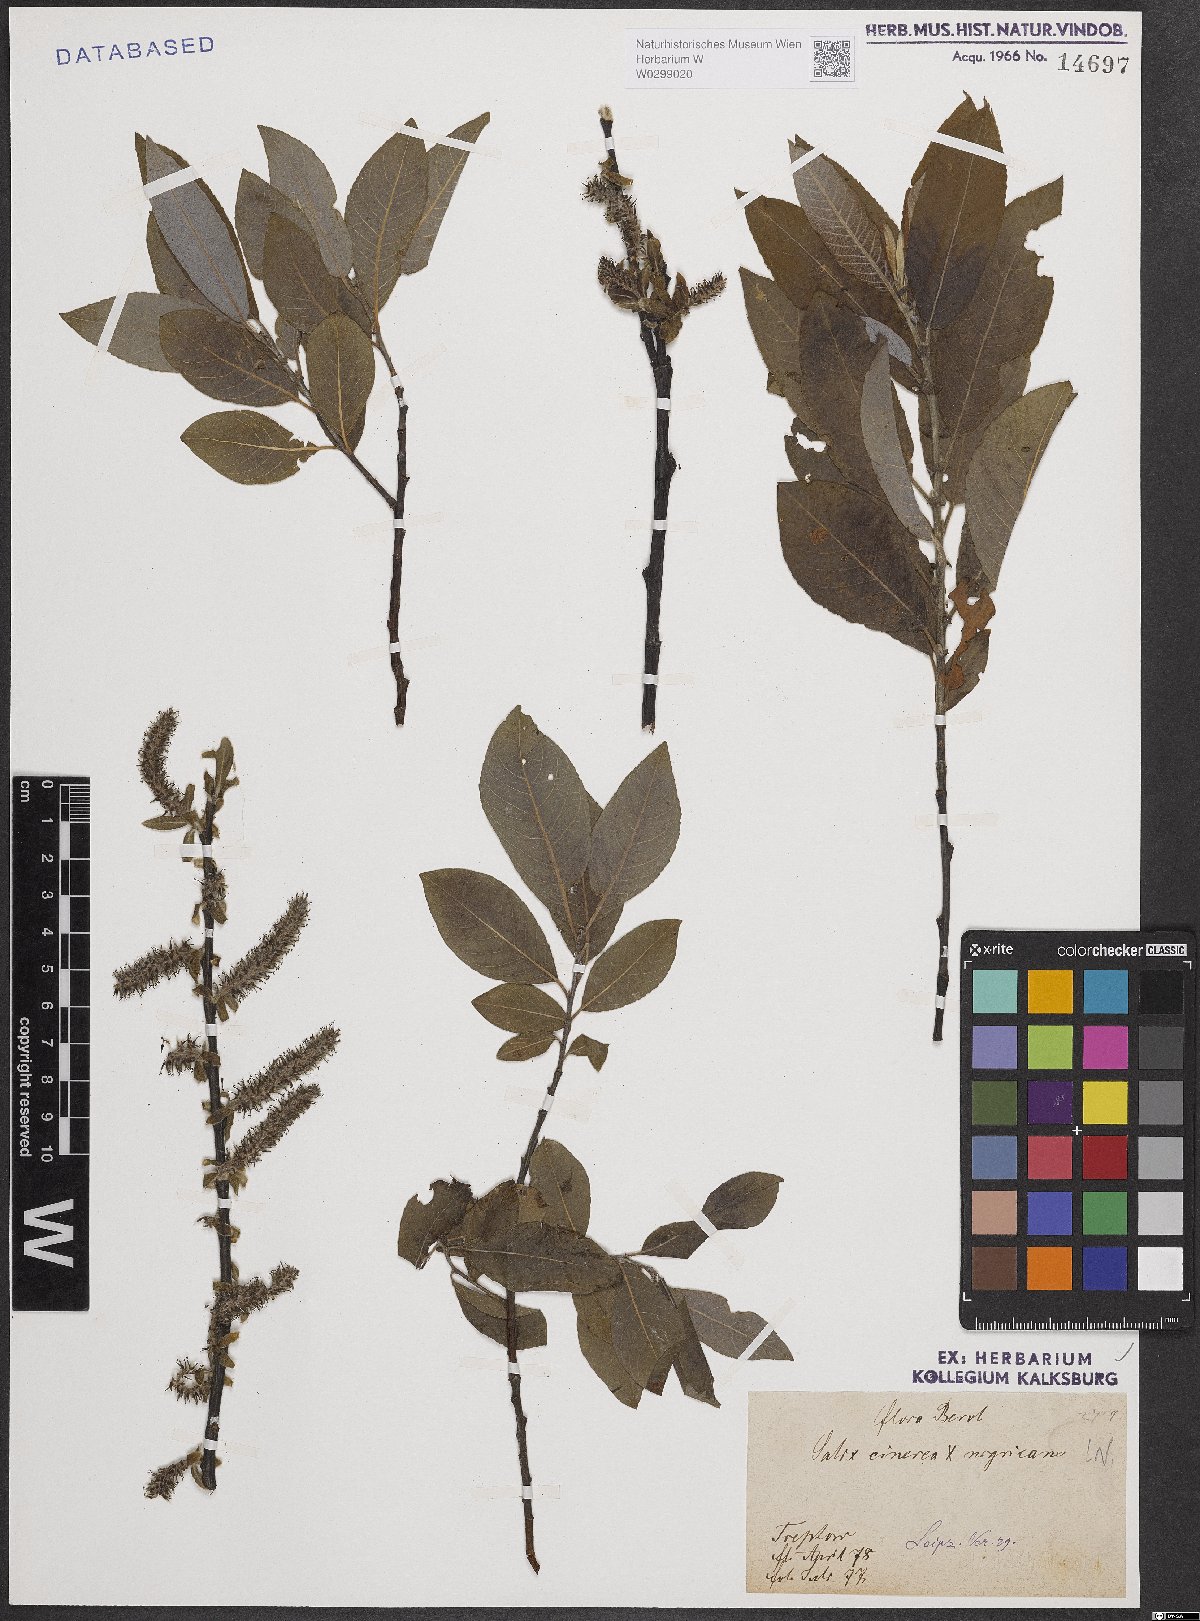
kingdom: Plantae
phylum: Tracheophyta
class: Magnoliopsida
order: Malpighiales
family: Salicaceae
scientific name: Salicaceae
